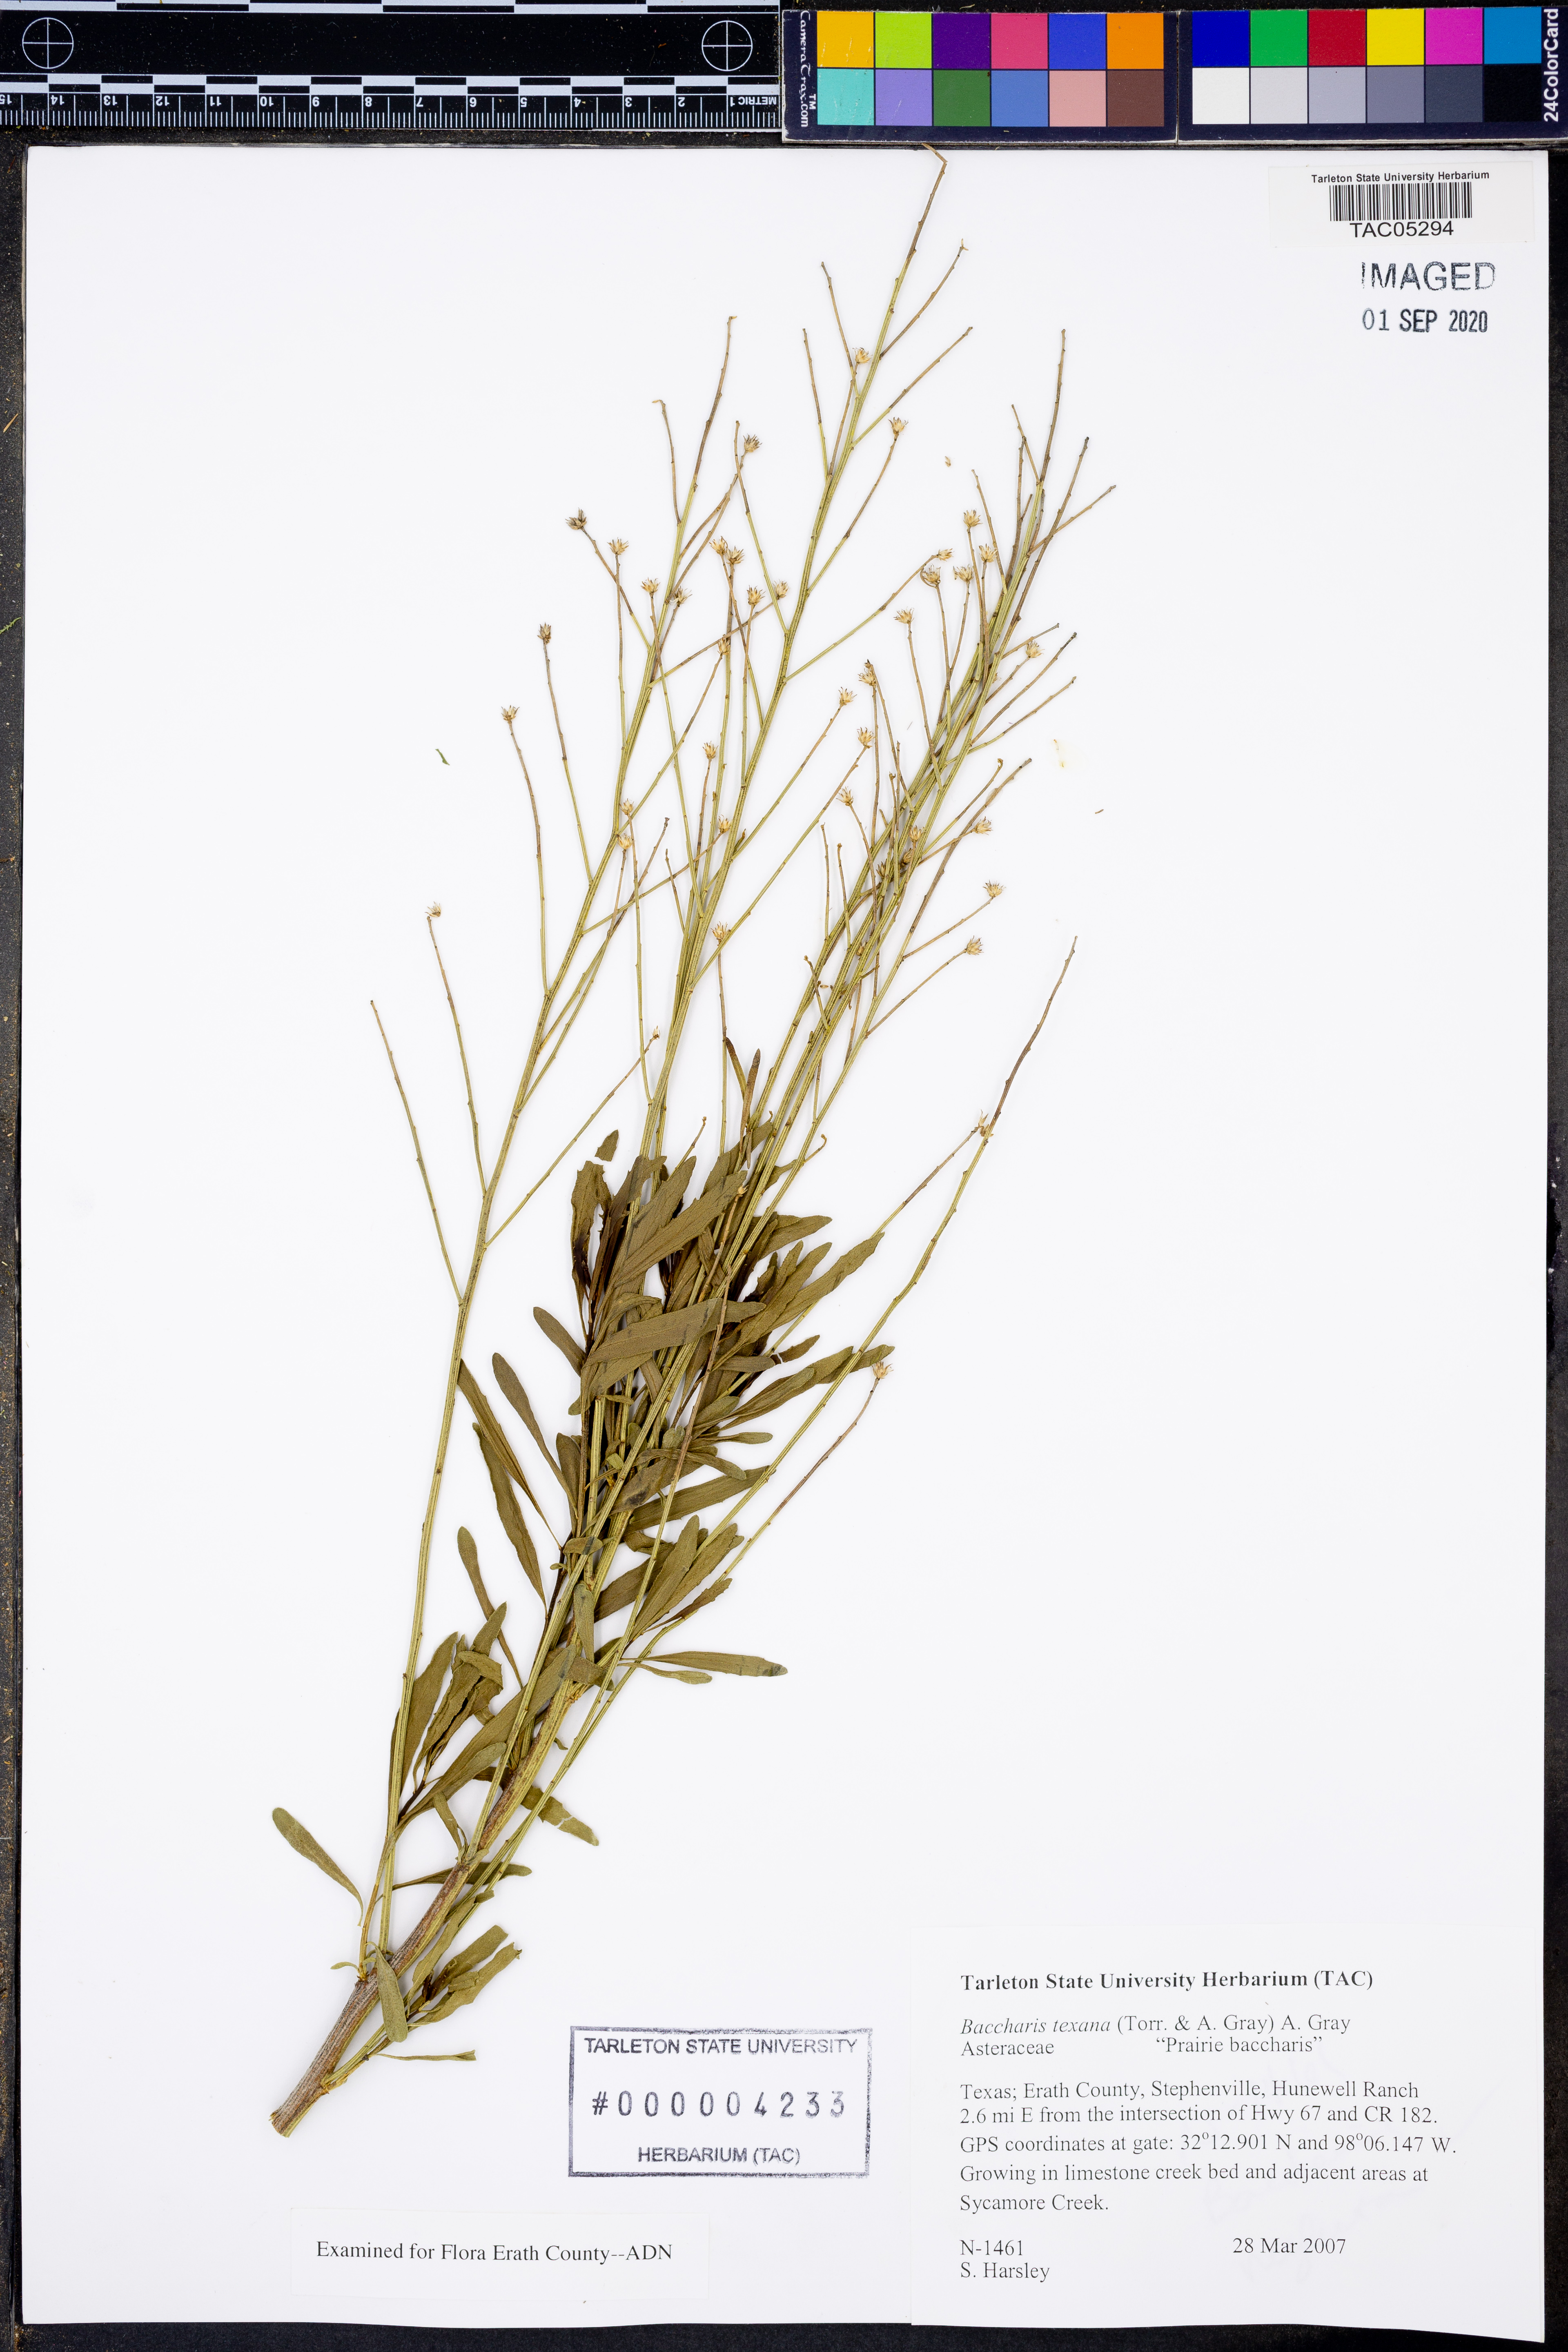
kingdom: Plantae
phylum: Tracheophyta
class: Magnoliopsida
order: Asterales
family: Asteraceae
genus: Baccharis
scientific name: Baccharis texana
